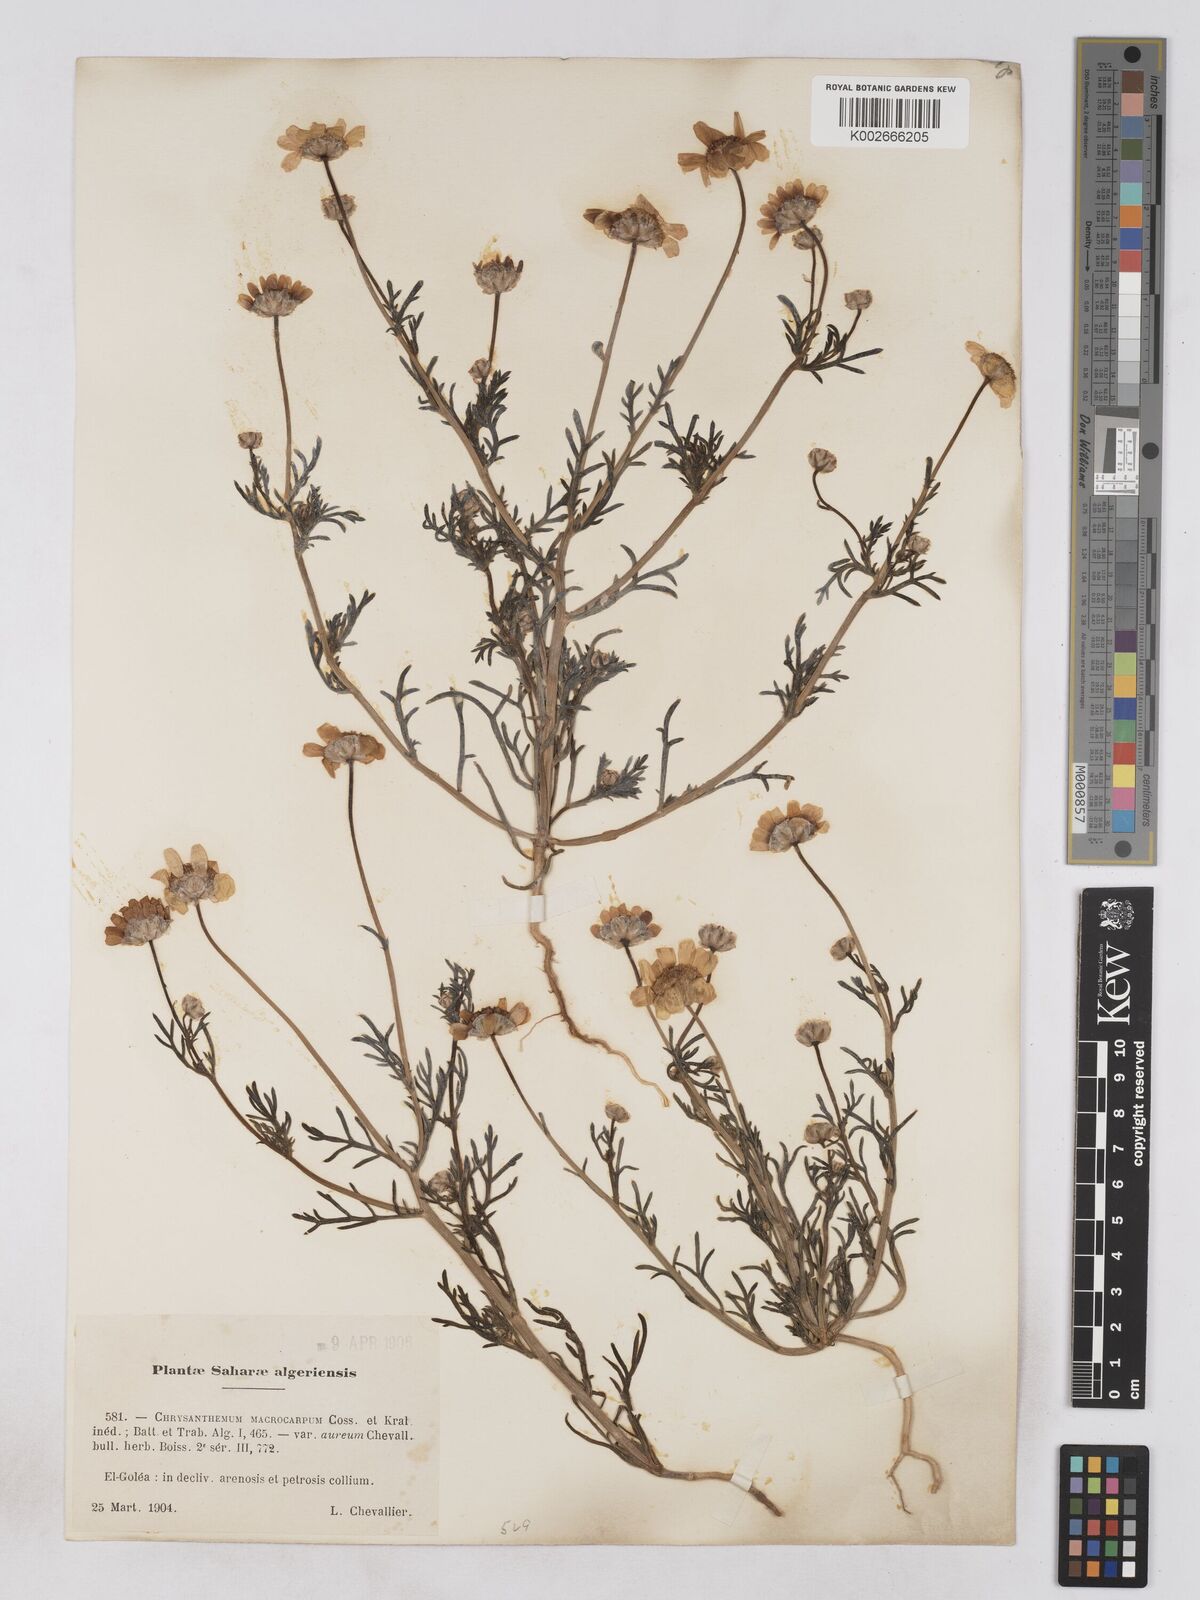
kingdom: Plantae
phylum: Tracheophyta
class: Magnoliopsida
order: Asterales
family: Asteraceae
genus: Endopappus
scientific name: Endopappus
